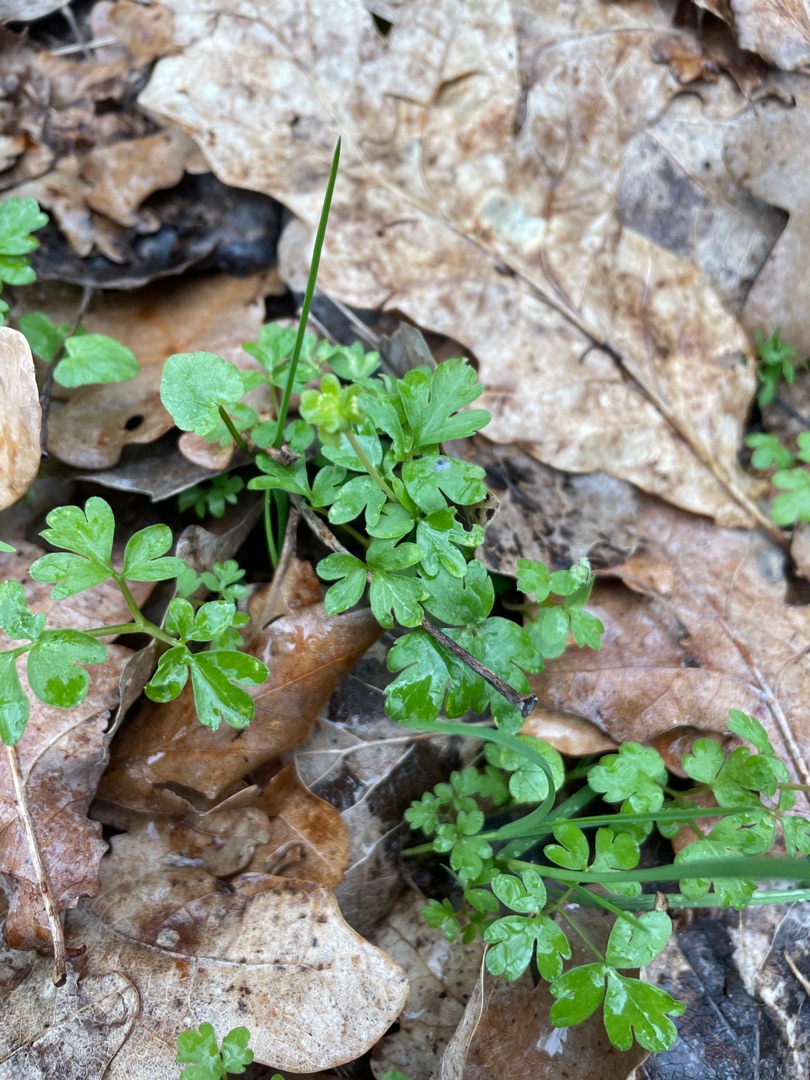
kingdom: Plantae
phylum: Tracheophyta
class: Magnoliopsida
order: Dipsacales
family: Viburnaceae
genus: Adoxa
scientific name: Adoxa moschatellina
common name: Desmerurt
